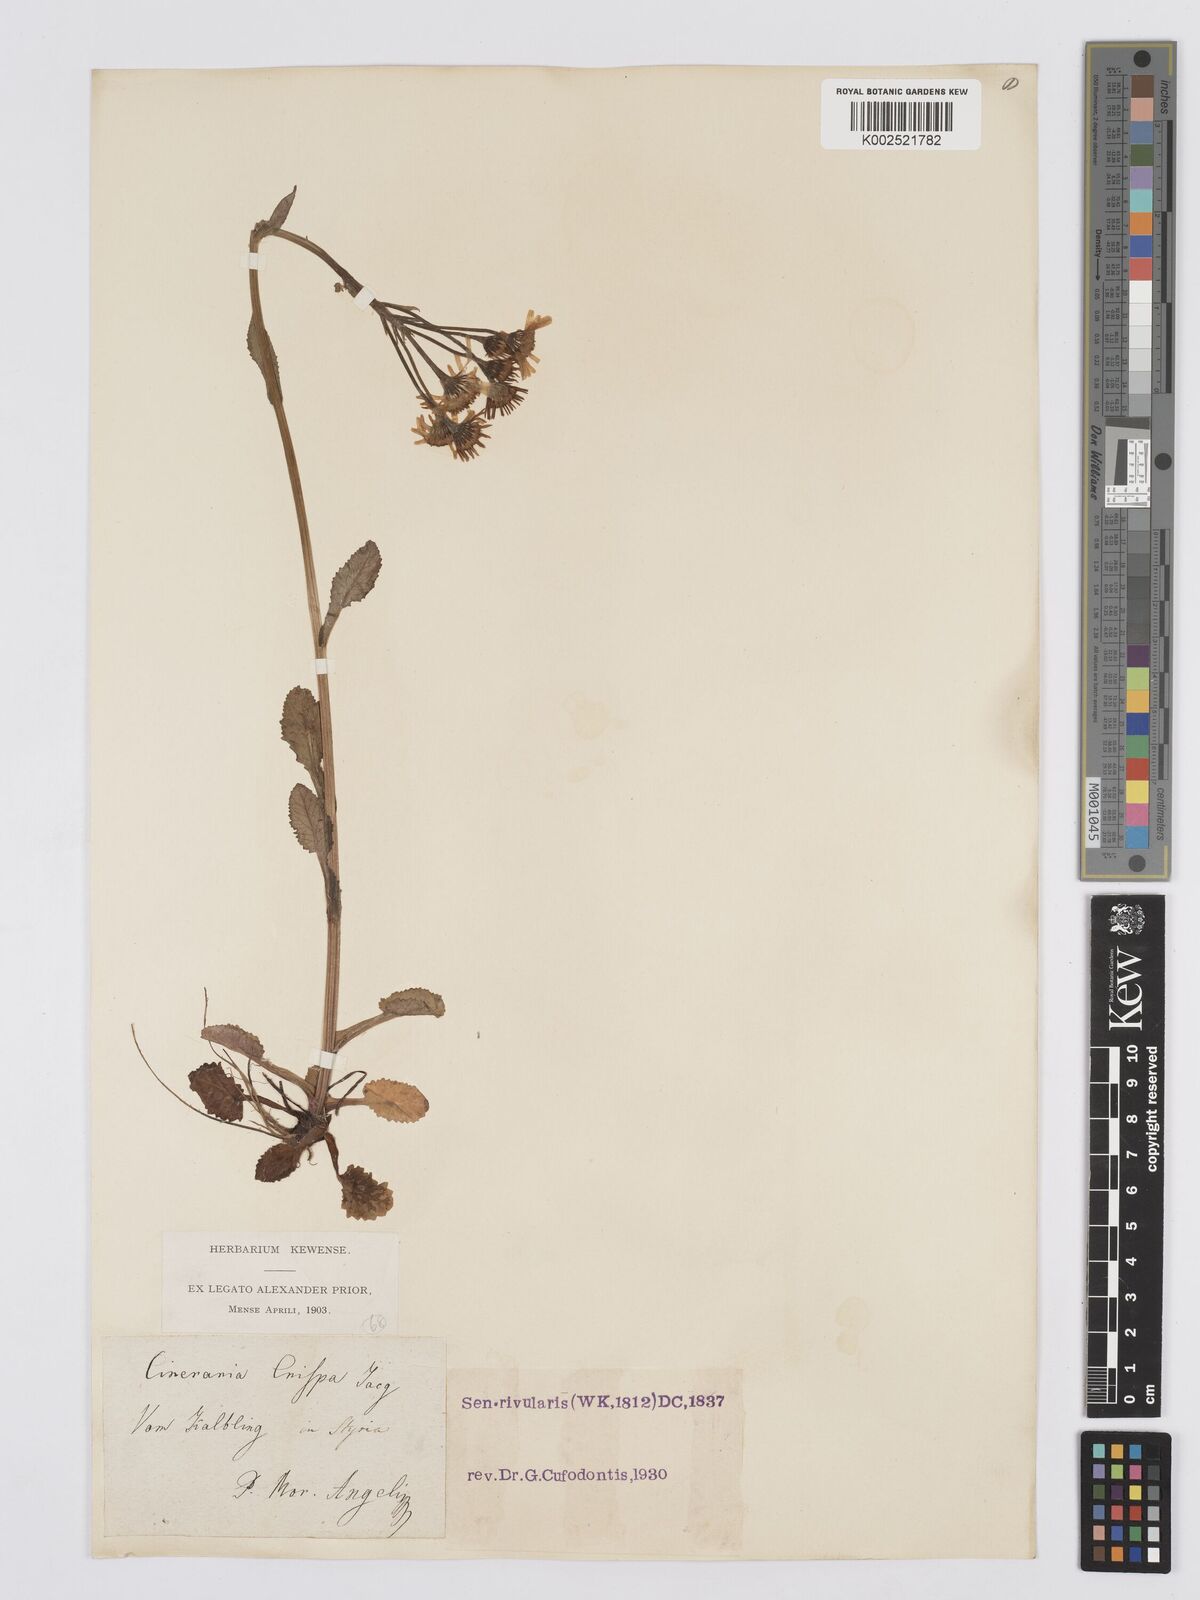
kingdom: Plantae
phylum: Tracheophyta
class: Magnoliopsida
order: Asterales
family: Asteraceae
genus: Tephroseris
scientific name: Tephroseris crispa
